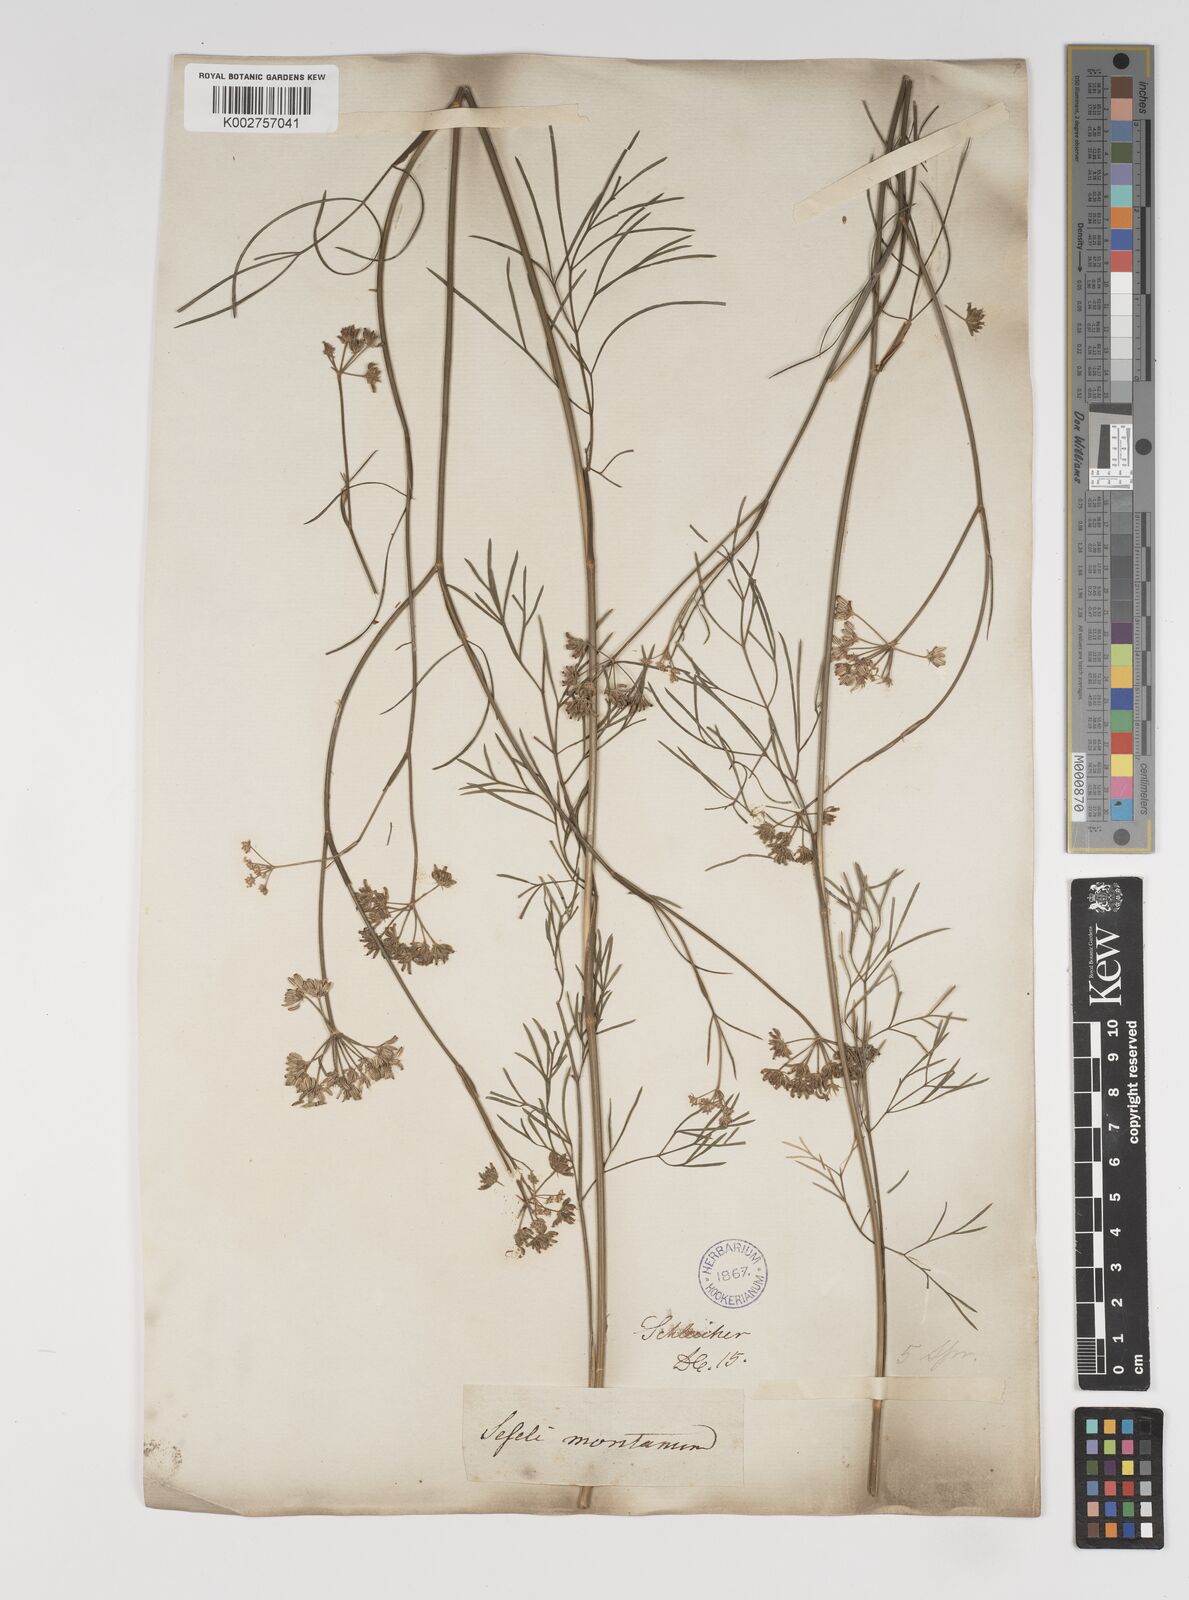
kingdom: Plantae
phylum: Tracheophyta
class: Magnoliopsida
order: Apiales
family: Apiaceae
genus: Seseli
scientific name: Seseli montanum
